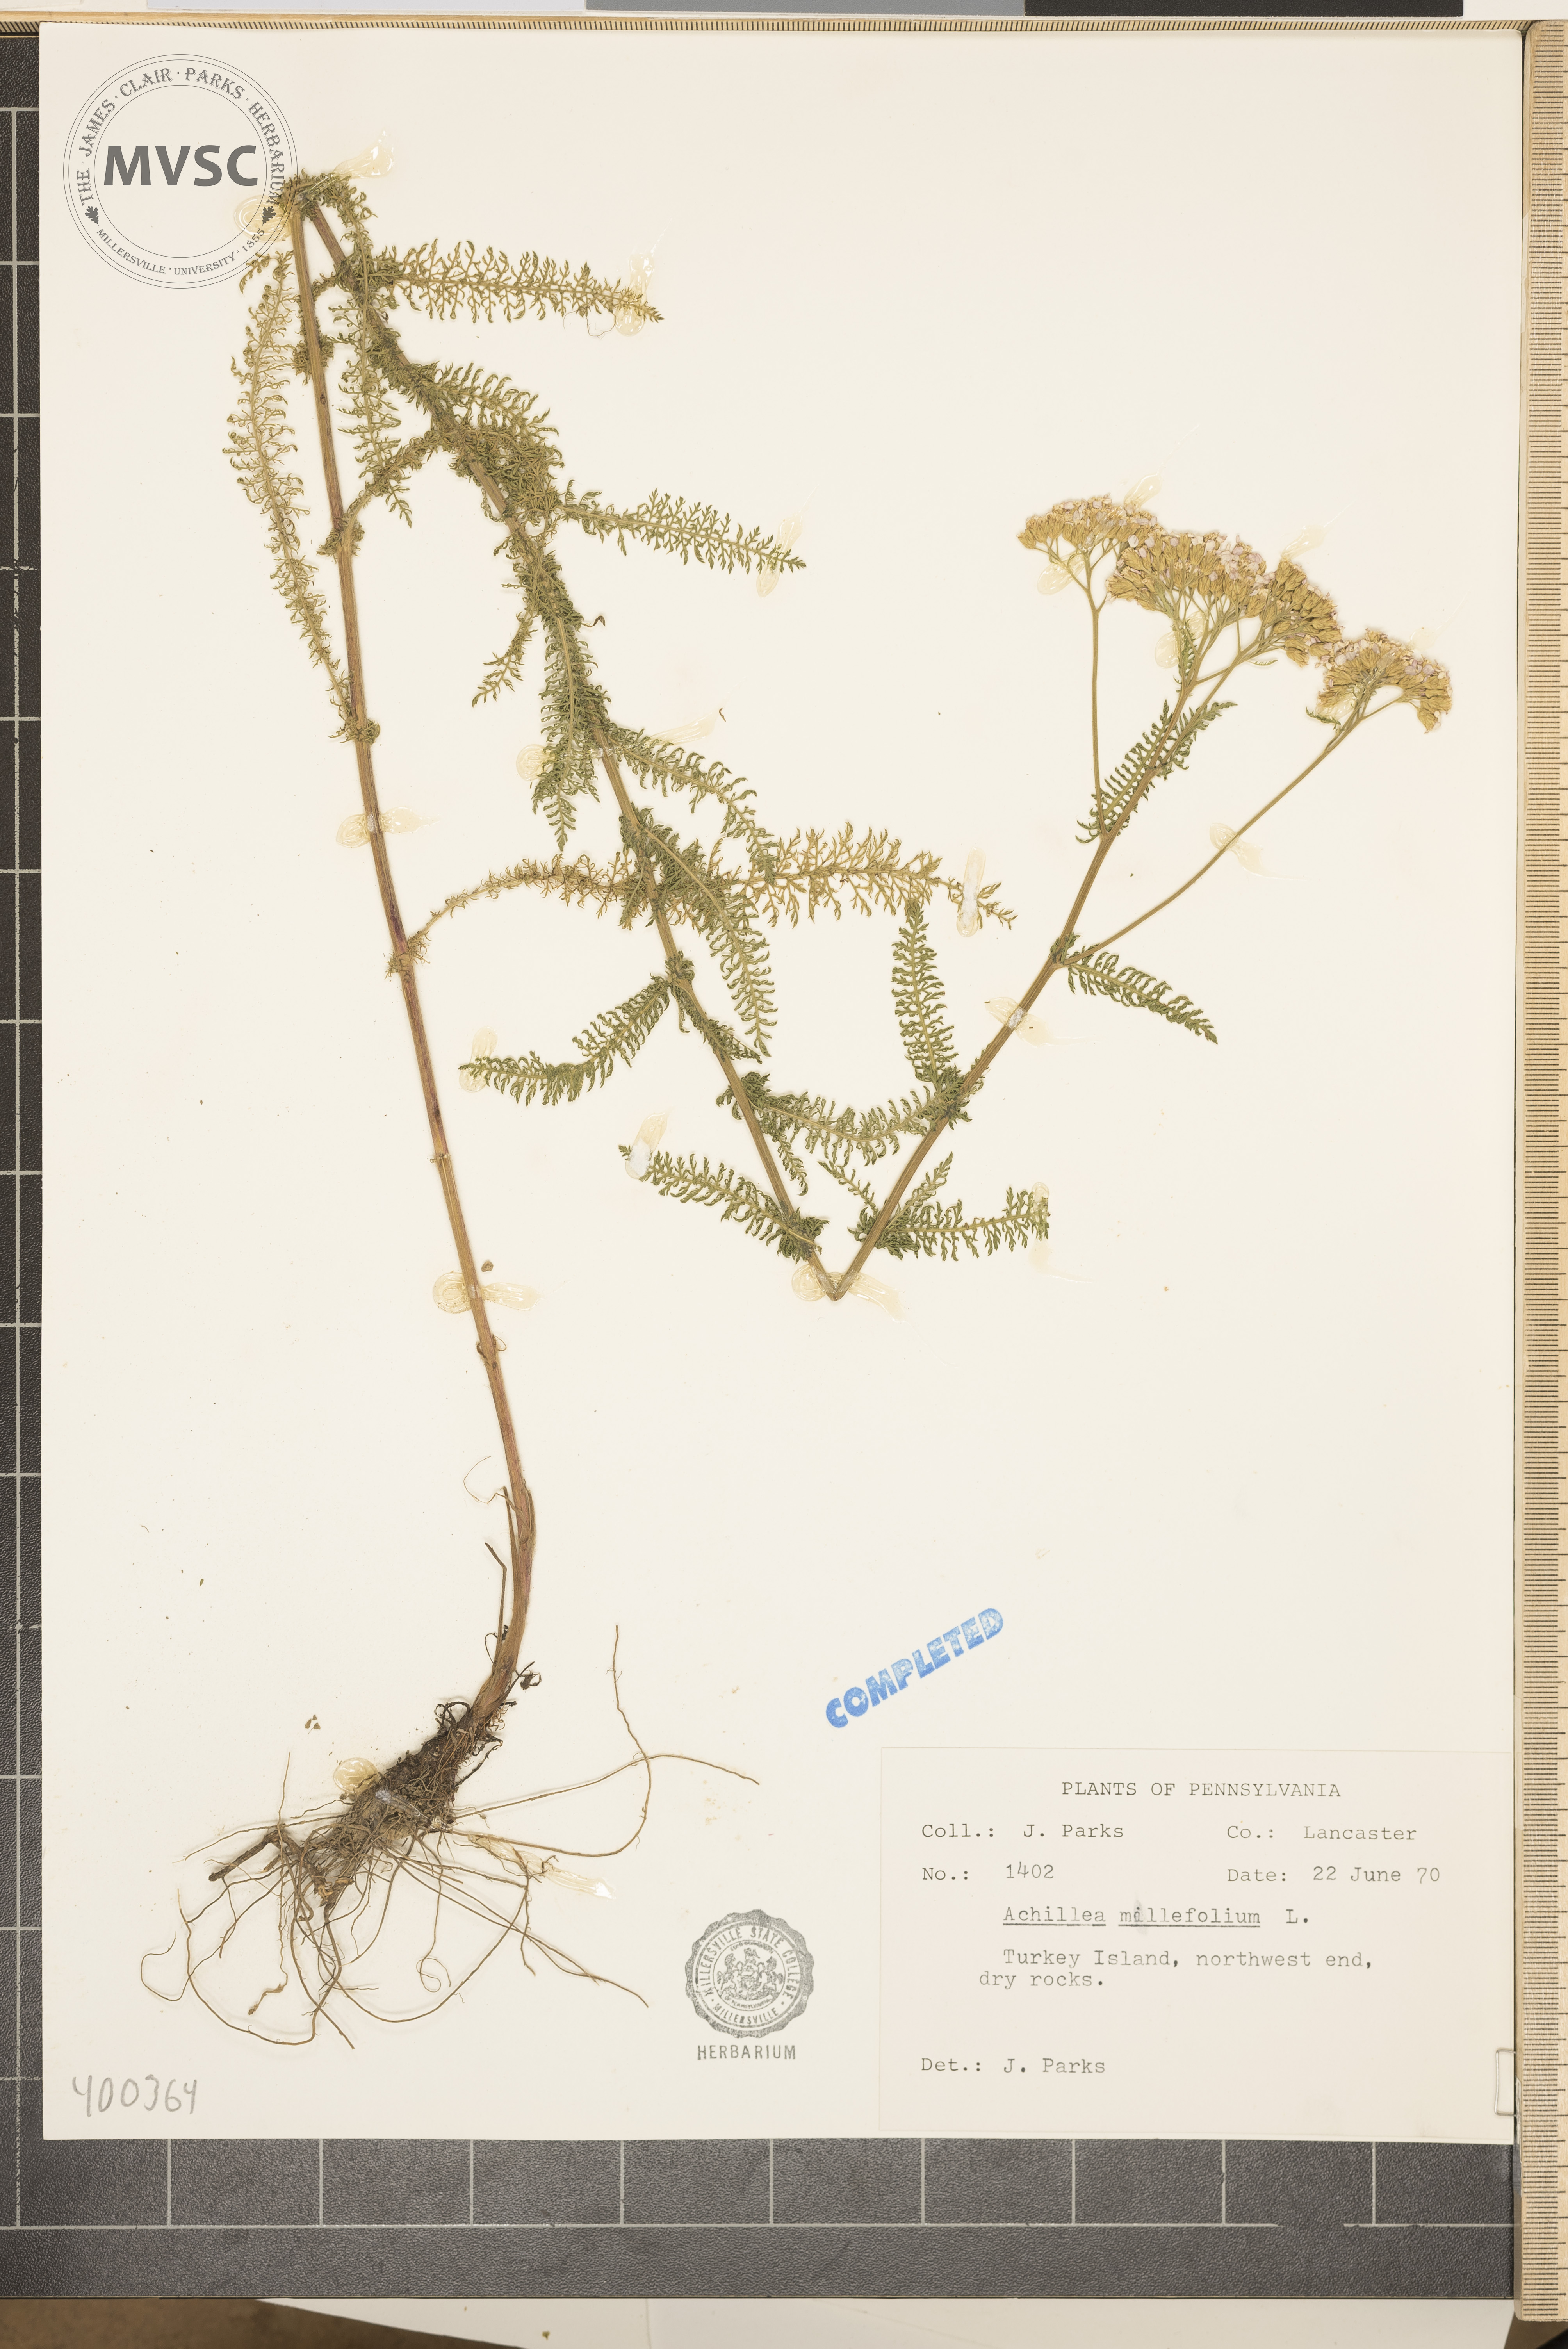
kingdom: Plantae
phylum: Tracheophyta
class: Magnoliopsida
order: Asterales
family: Asteraceae
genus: Achillea
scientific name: Achillea millefolium
